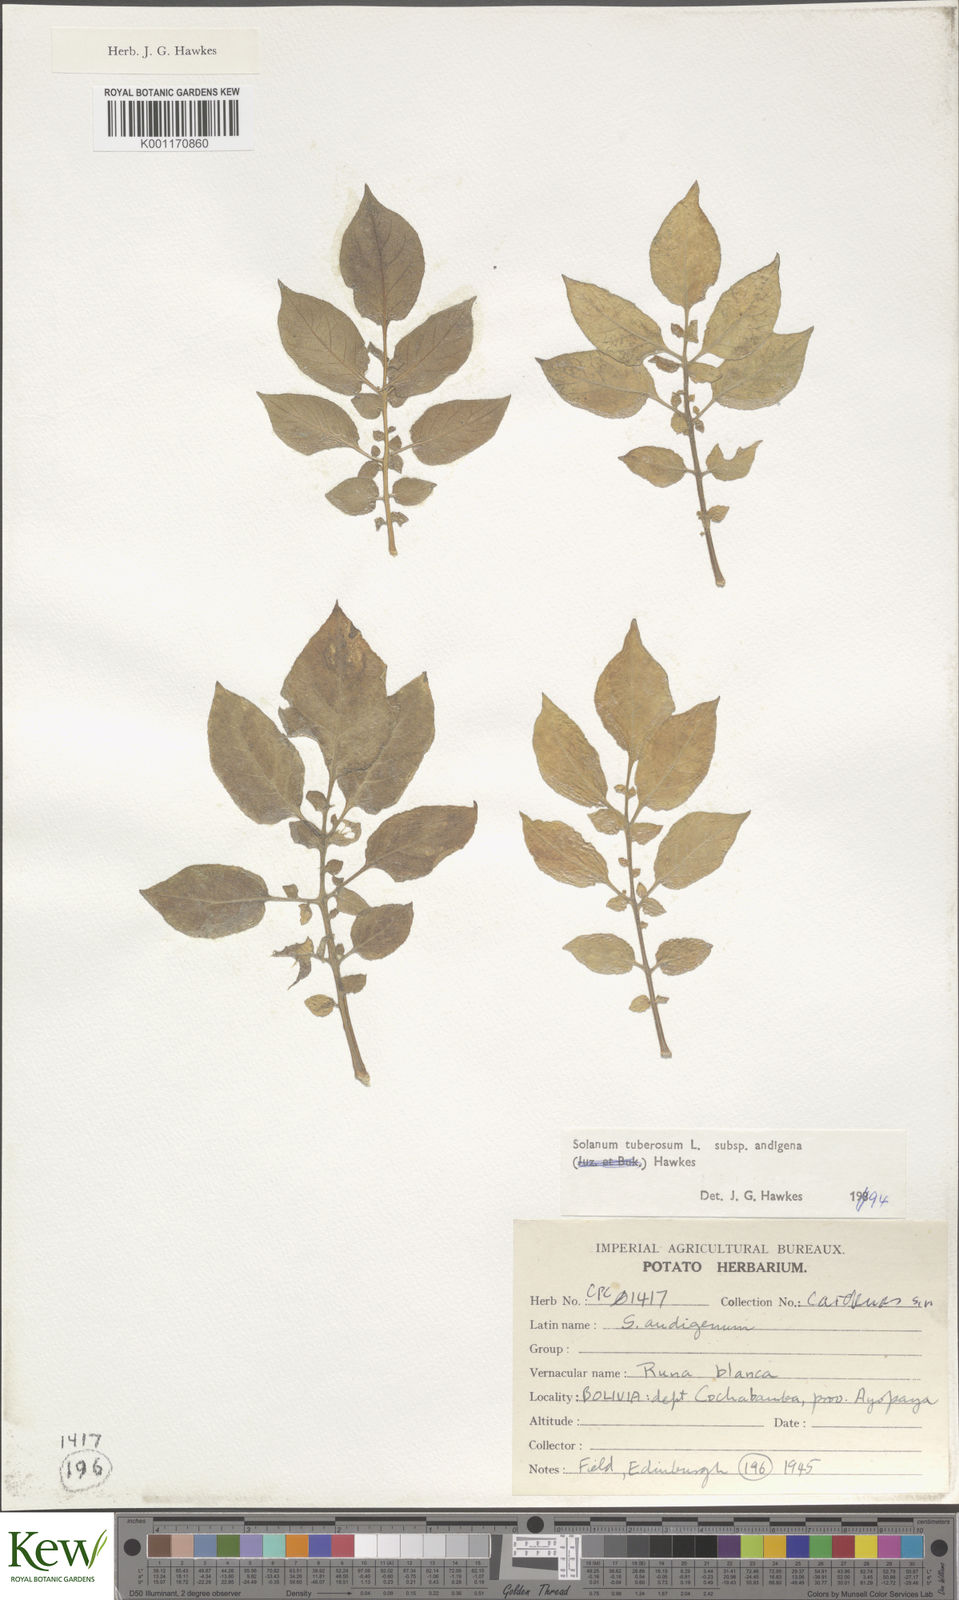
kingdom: Plantae
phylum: Tracheophyta
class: Magnoliopsida
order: Solanales
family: Solanaceae
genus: Solanum
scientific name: Solanum tuberosum
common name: Potato
